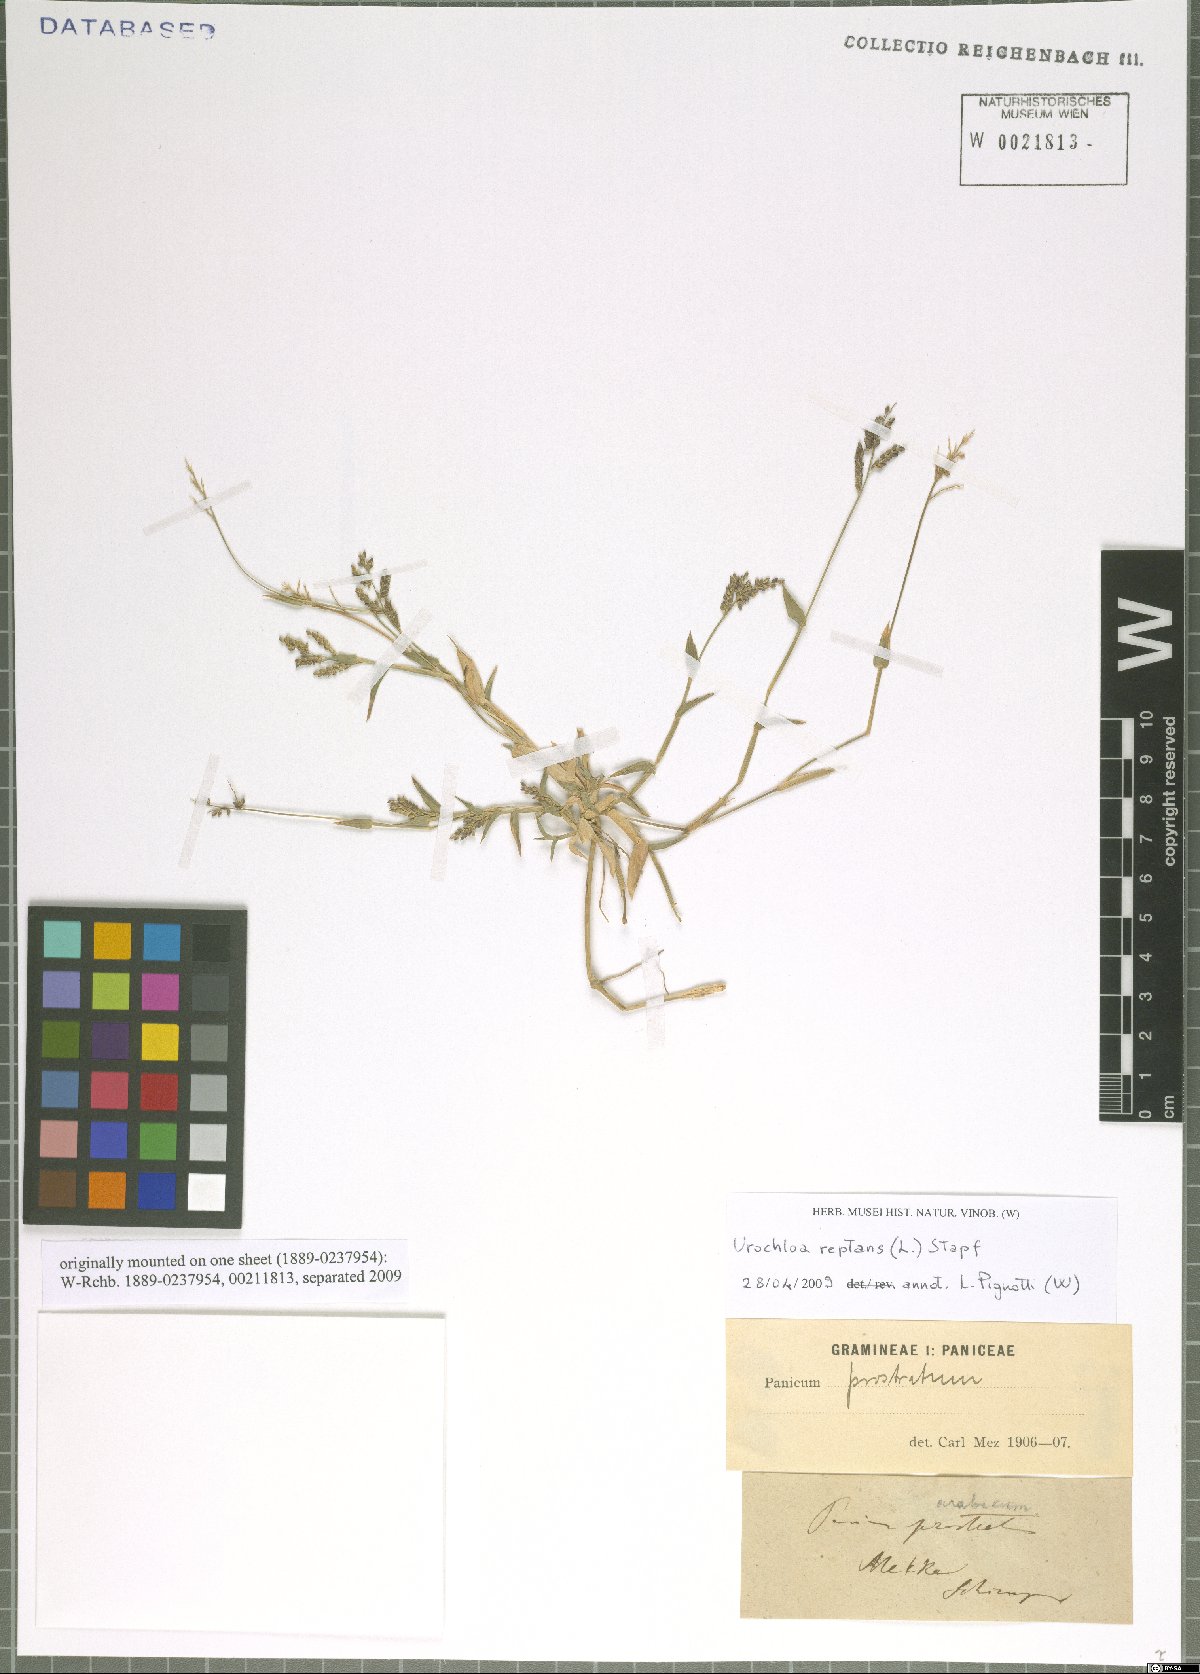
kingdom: Plantae
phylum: Tracheophyta
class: Liliopsida
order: Poales
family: Poaceae
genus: Urochloa
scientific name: Urochloa reptans
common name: Sprawling signalgrass
